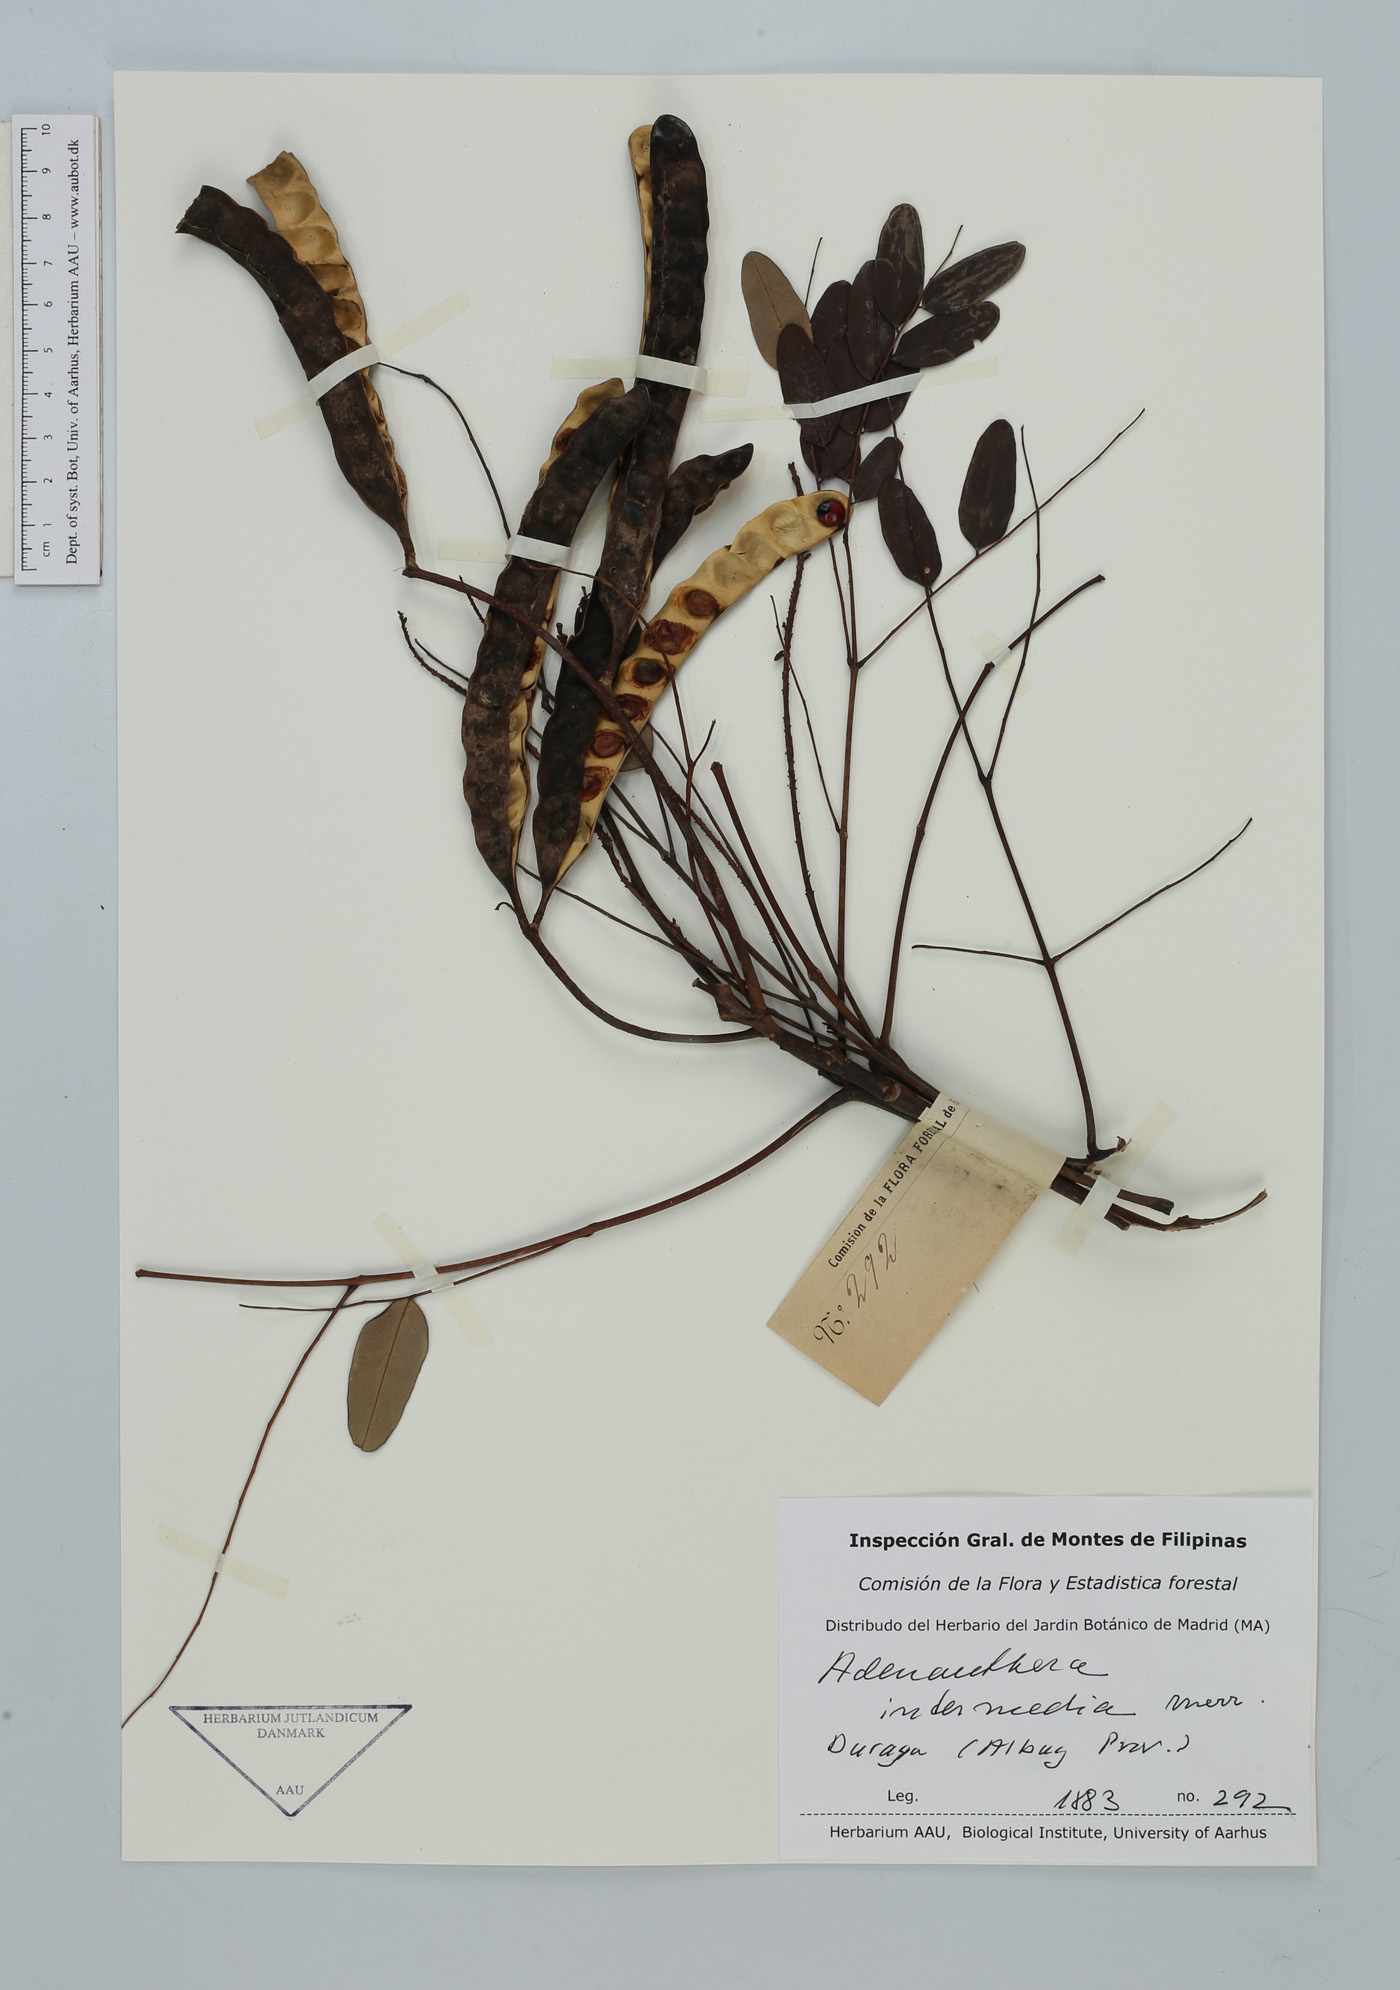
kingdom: Plantae
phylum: Tracheophyta
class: Magnoliopsida
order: Fabales
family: Fabaceae
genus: Adenanthera
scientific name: Adenanthera intermedia
